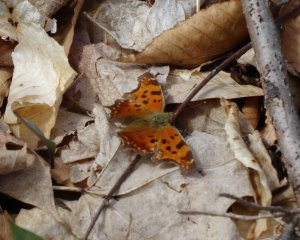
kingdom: Animalia
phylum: Arthropoda
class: Insecta
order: Lepidoptera
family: Nymphalidae
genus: Polygonia
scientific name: Polygonia comma
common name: Eastern Comma
